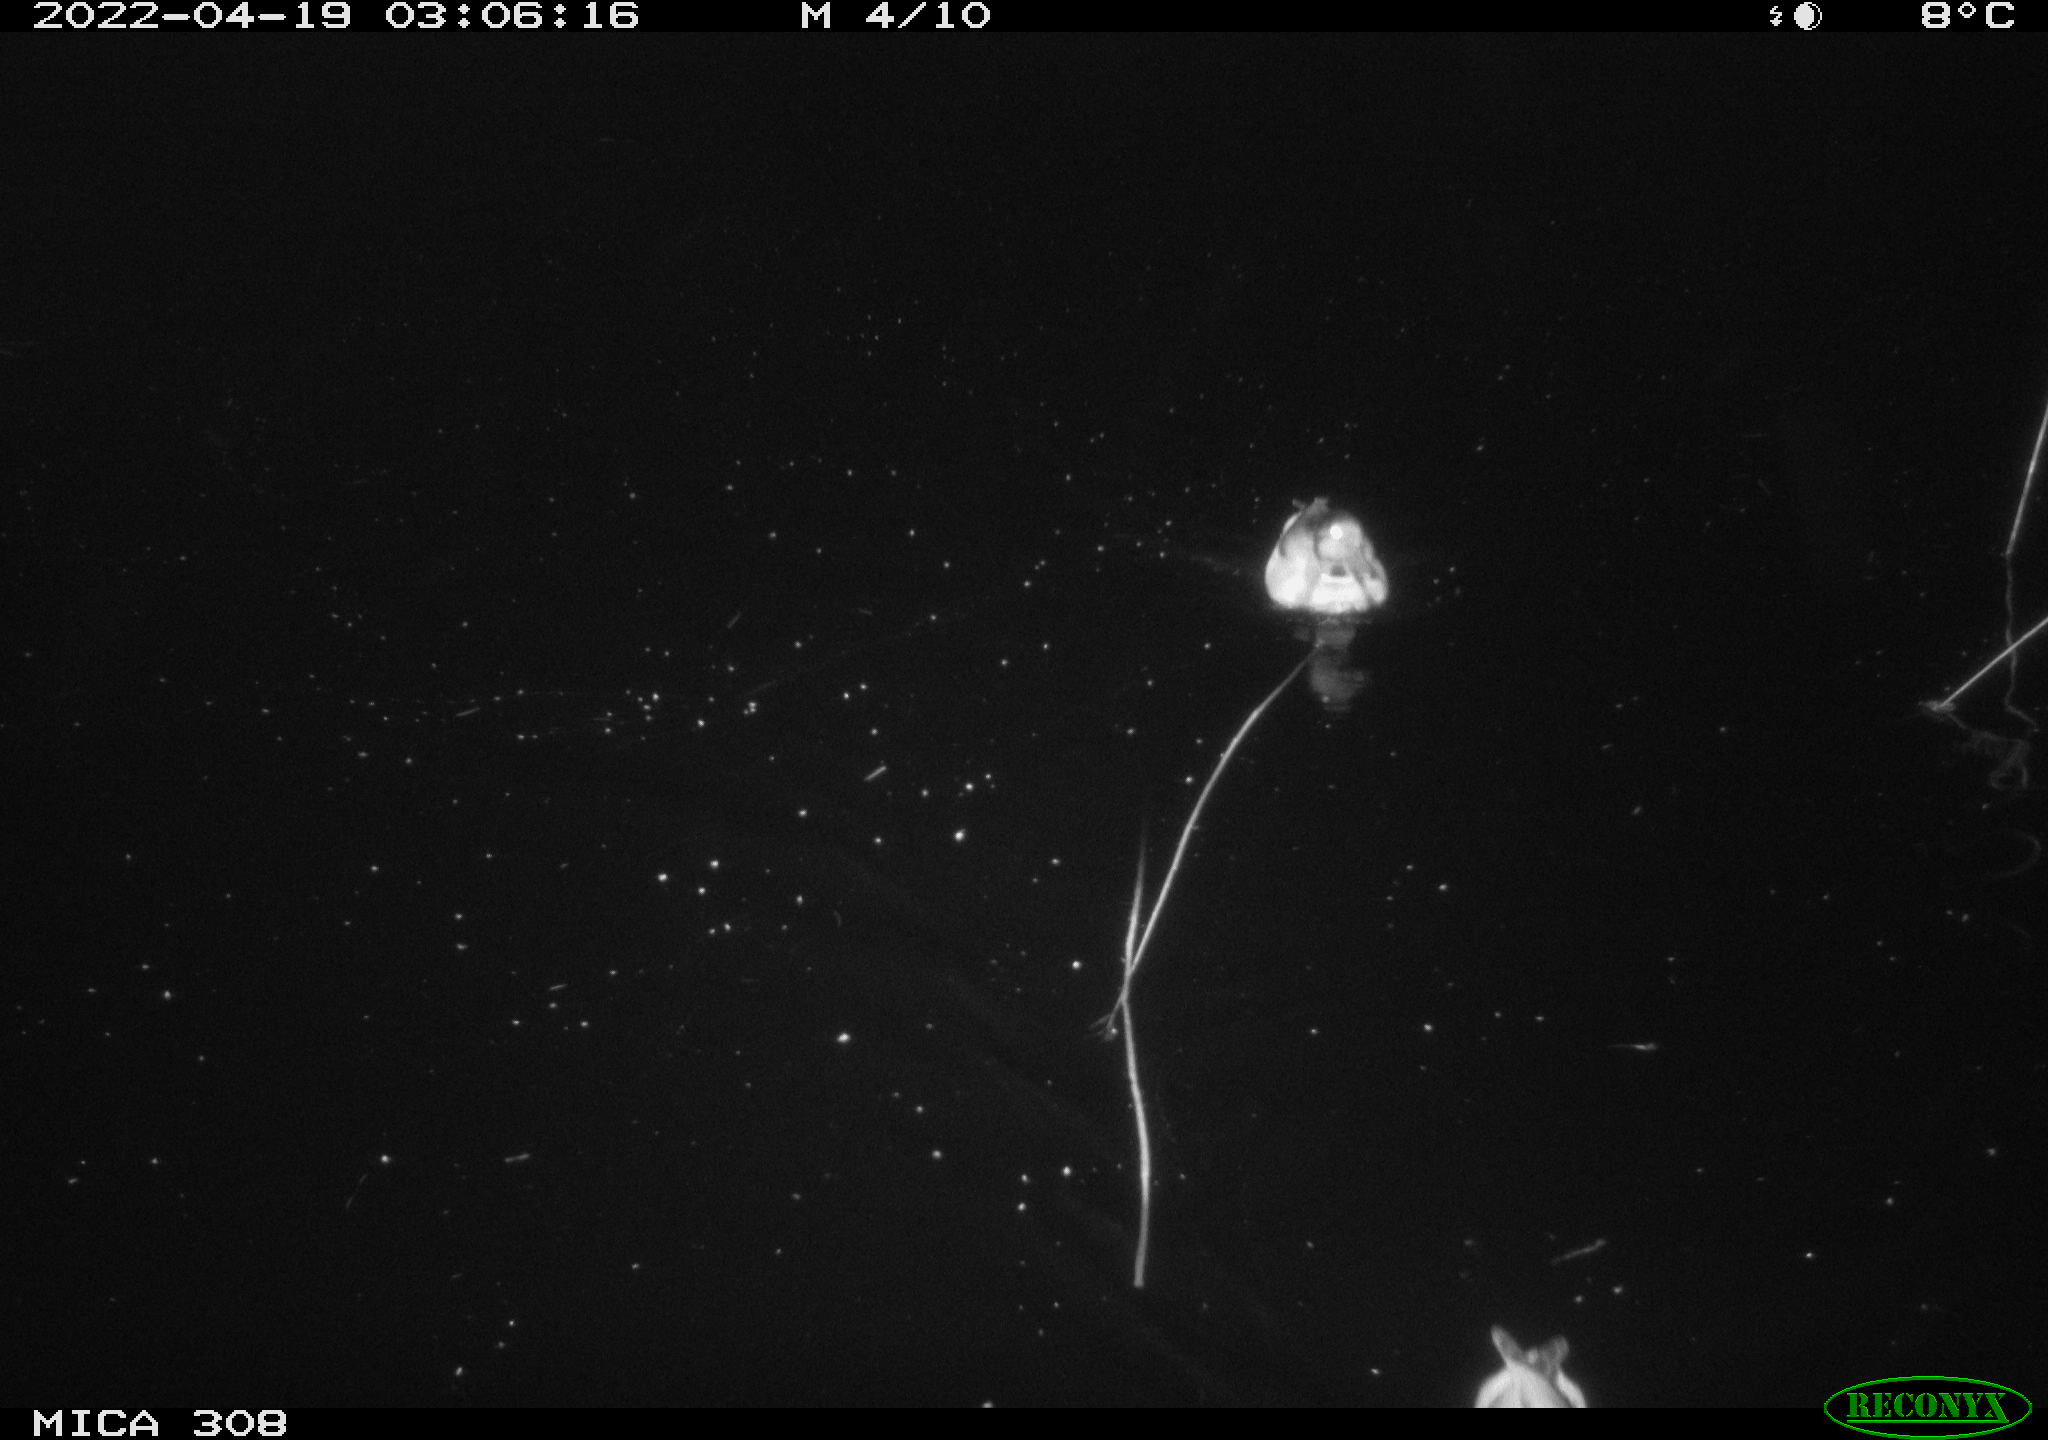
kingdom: Animalia
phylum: Chordata
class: Aves
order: Anseriformes
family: Anatidae
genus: Anas
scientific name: Anas platyrhynchos
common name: Mallard
